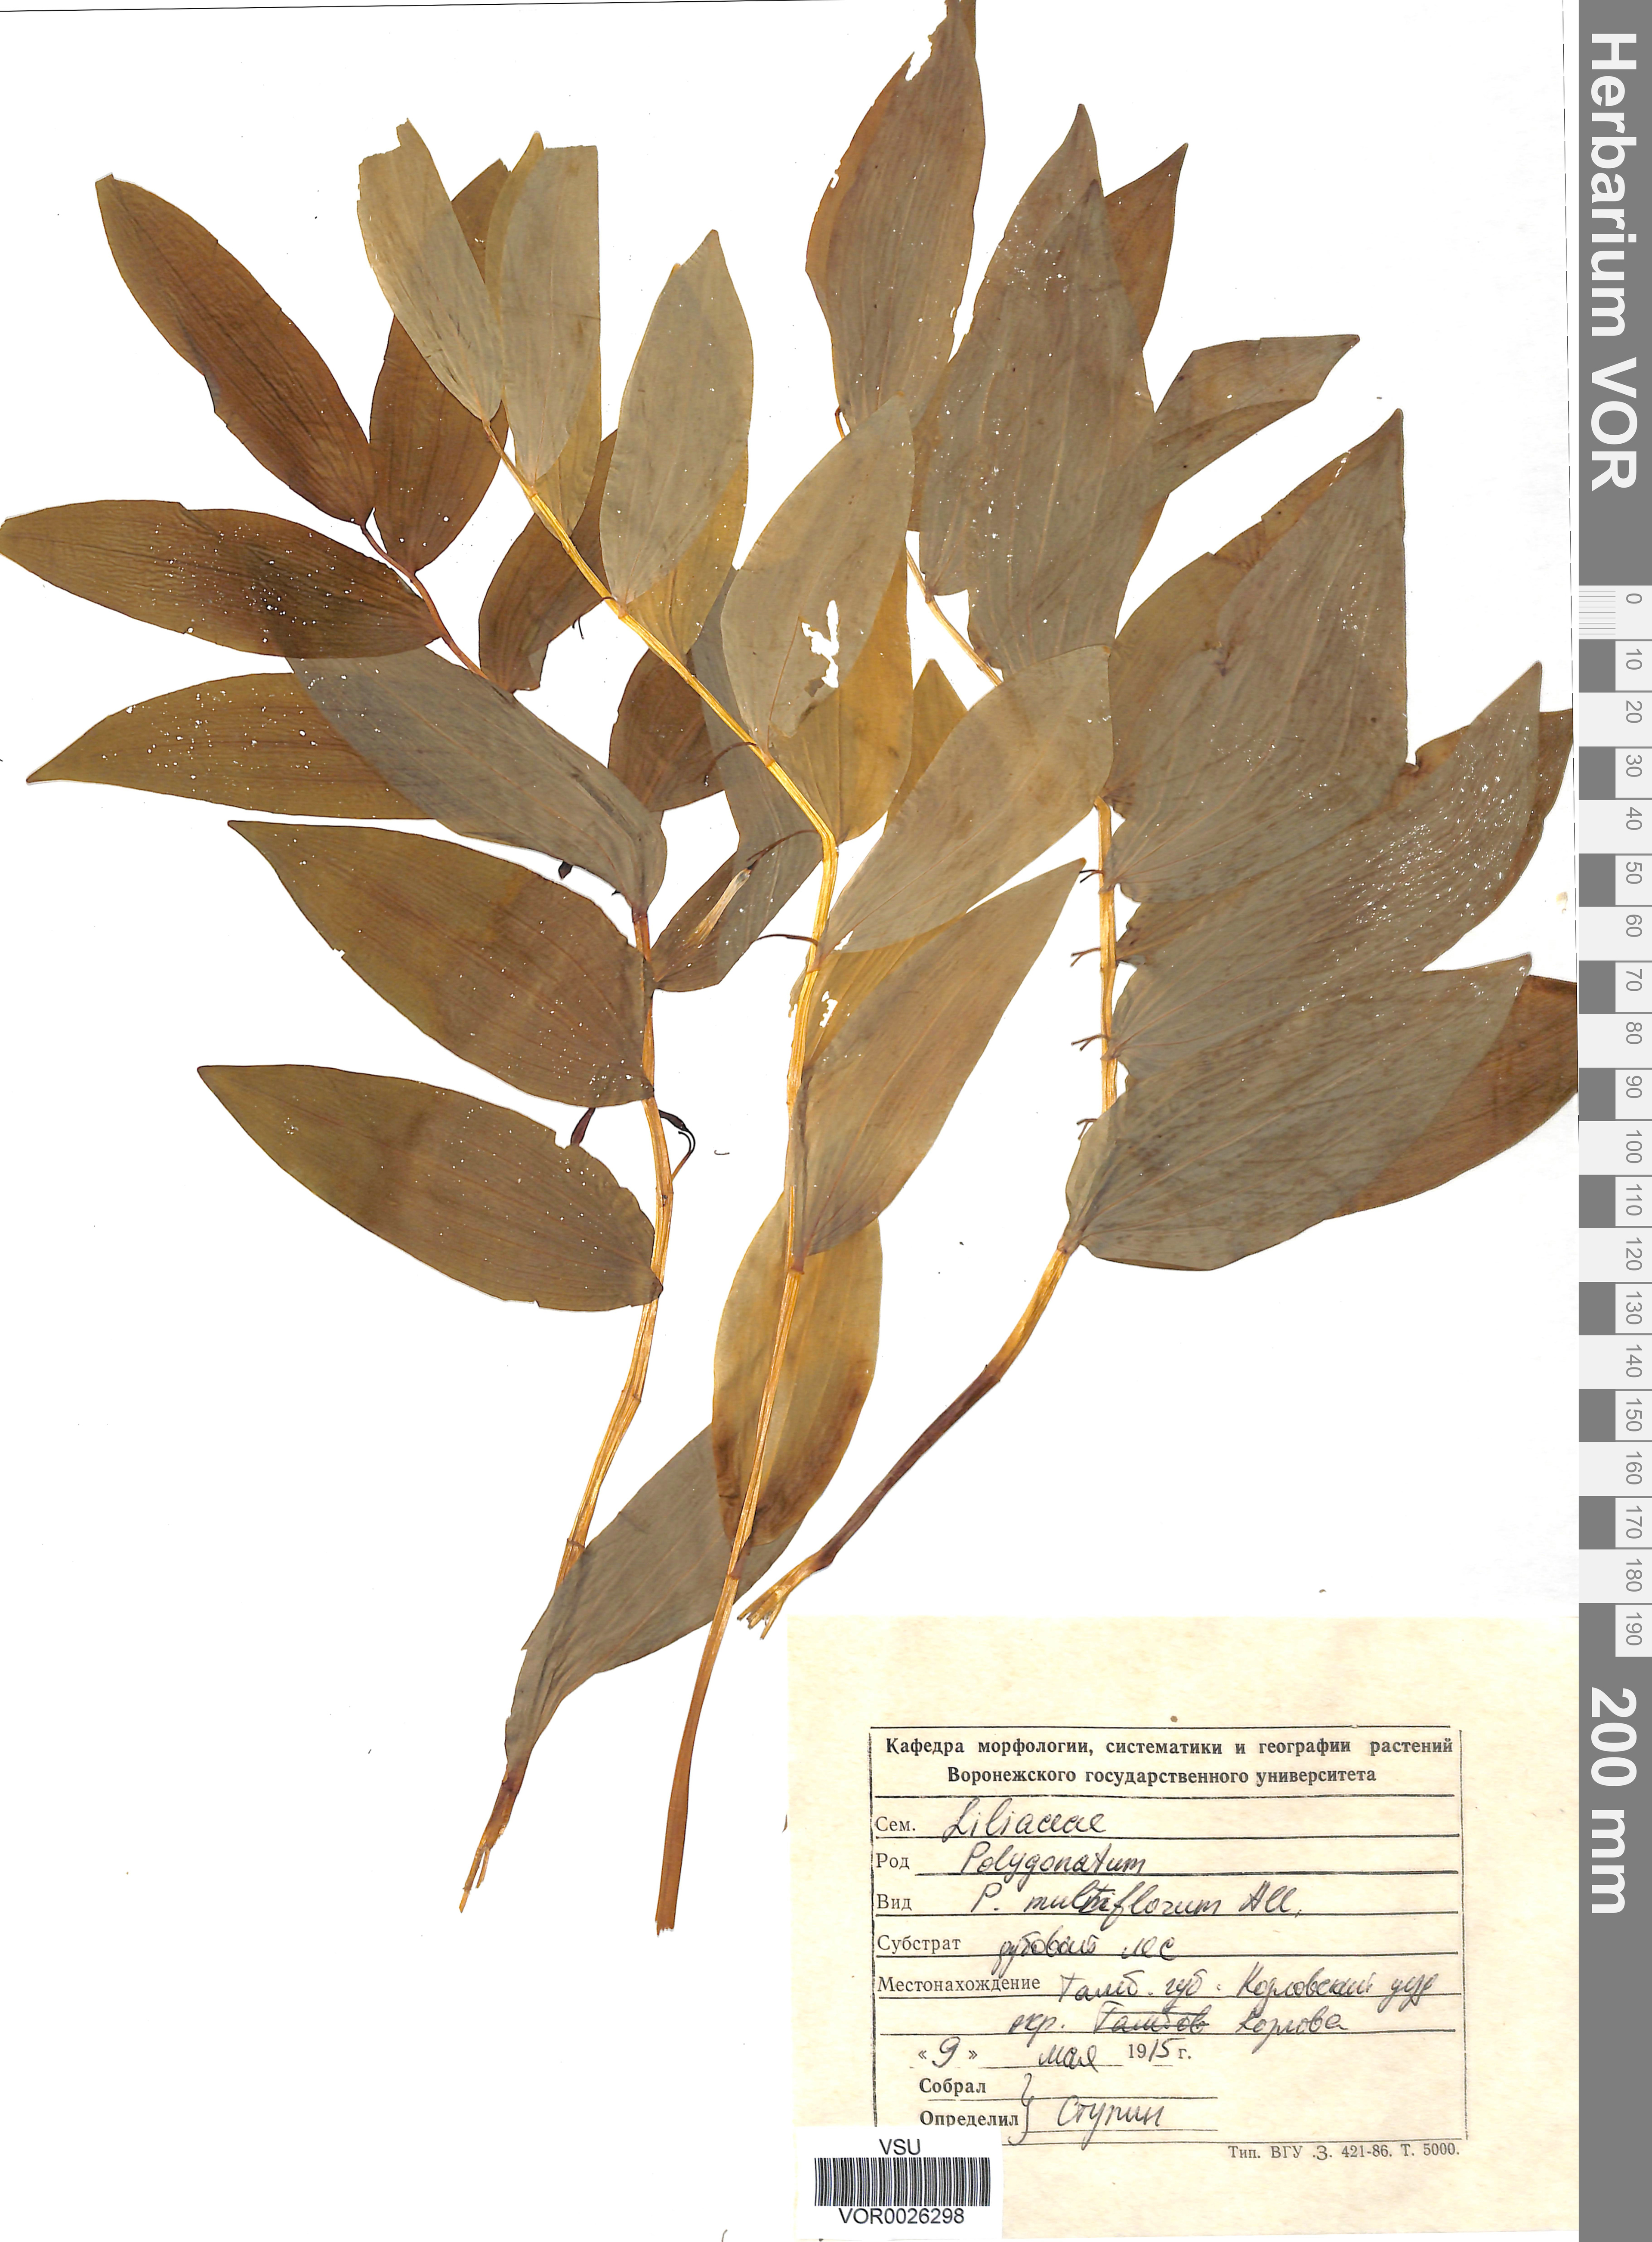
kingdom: Plantae
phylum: Tracheophyta
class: Liliopsida
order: Asparagales
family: Asparagaceae
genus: Polygonatum
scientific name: Polygonatum multiflorum
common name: Solomon's-seal
